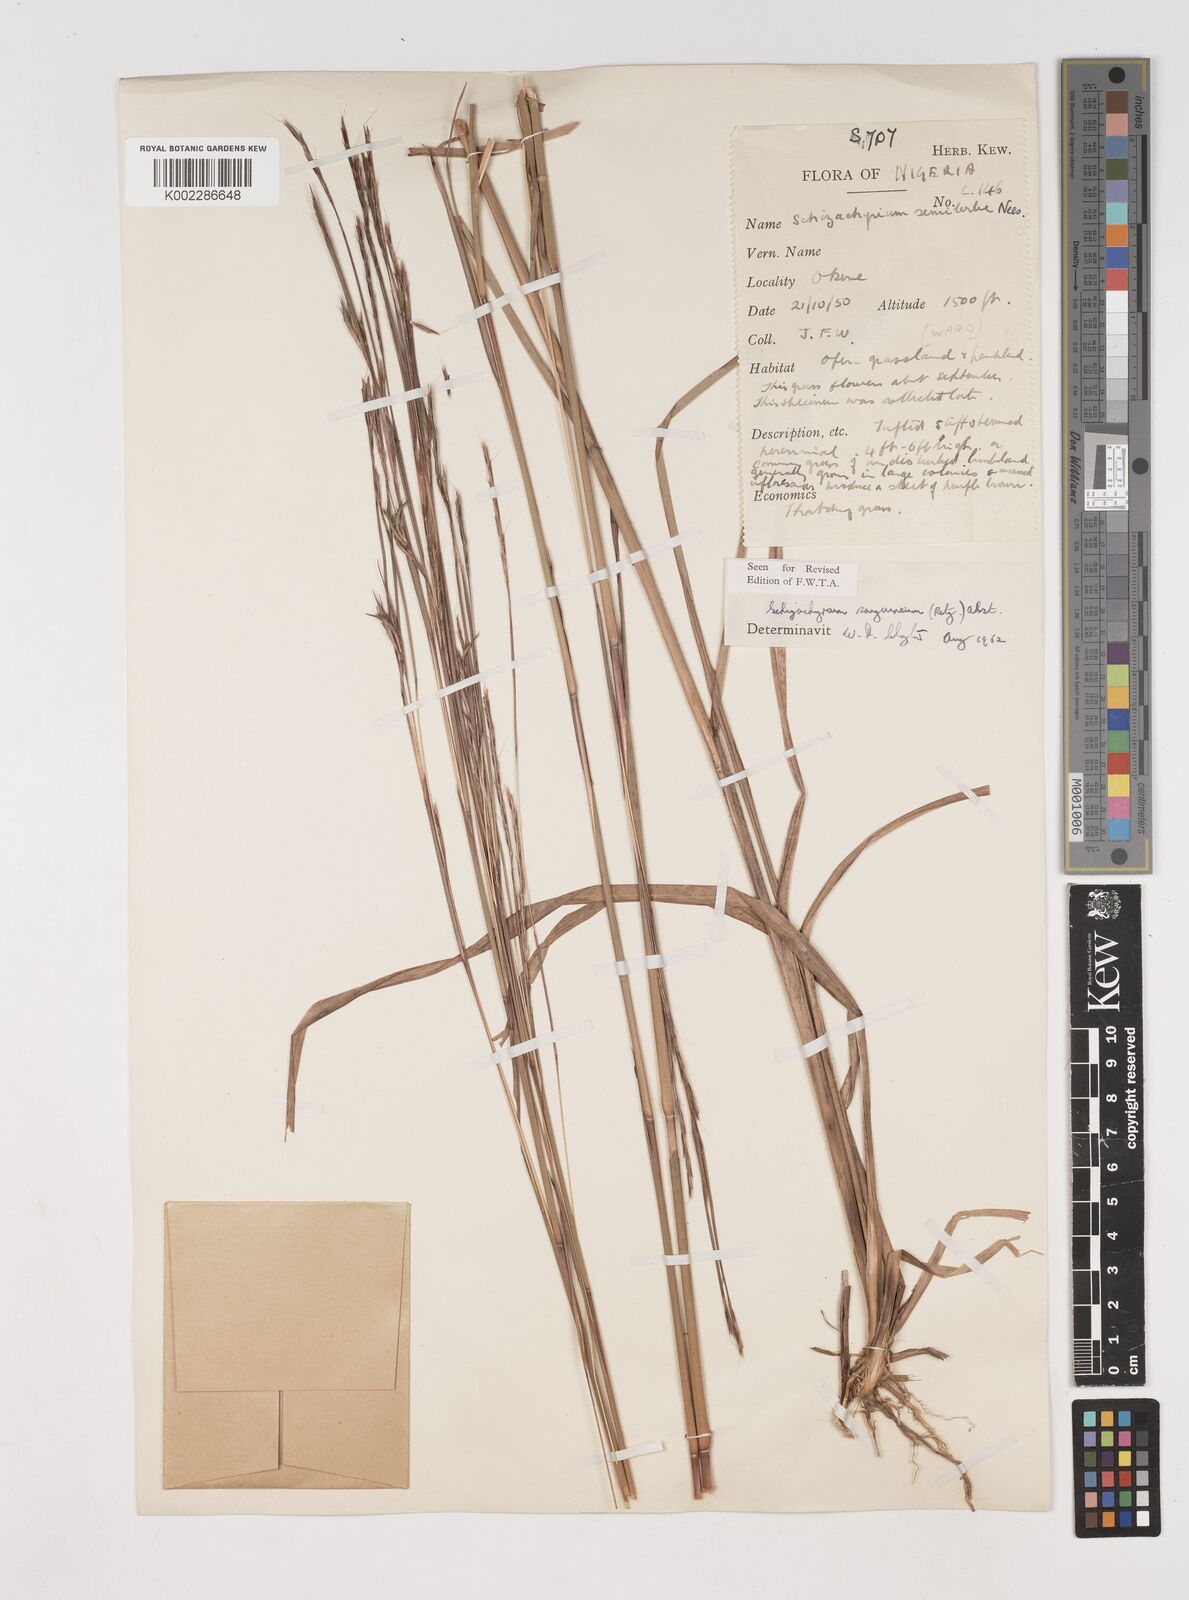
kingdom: Plantae
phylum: Tracheophyta
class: Liliopsida
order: Poales
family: Poaceae
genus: Schizachyrium
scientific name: Schizachyrium sanguineum
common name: Crimson bluestem
